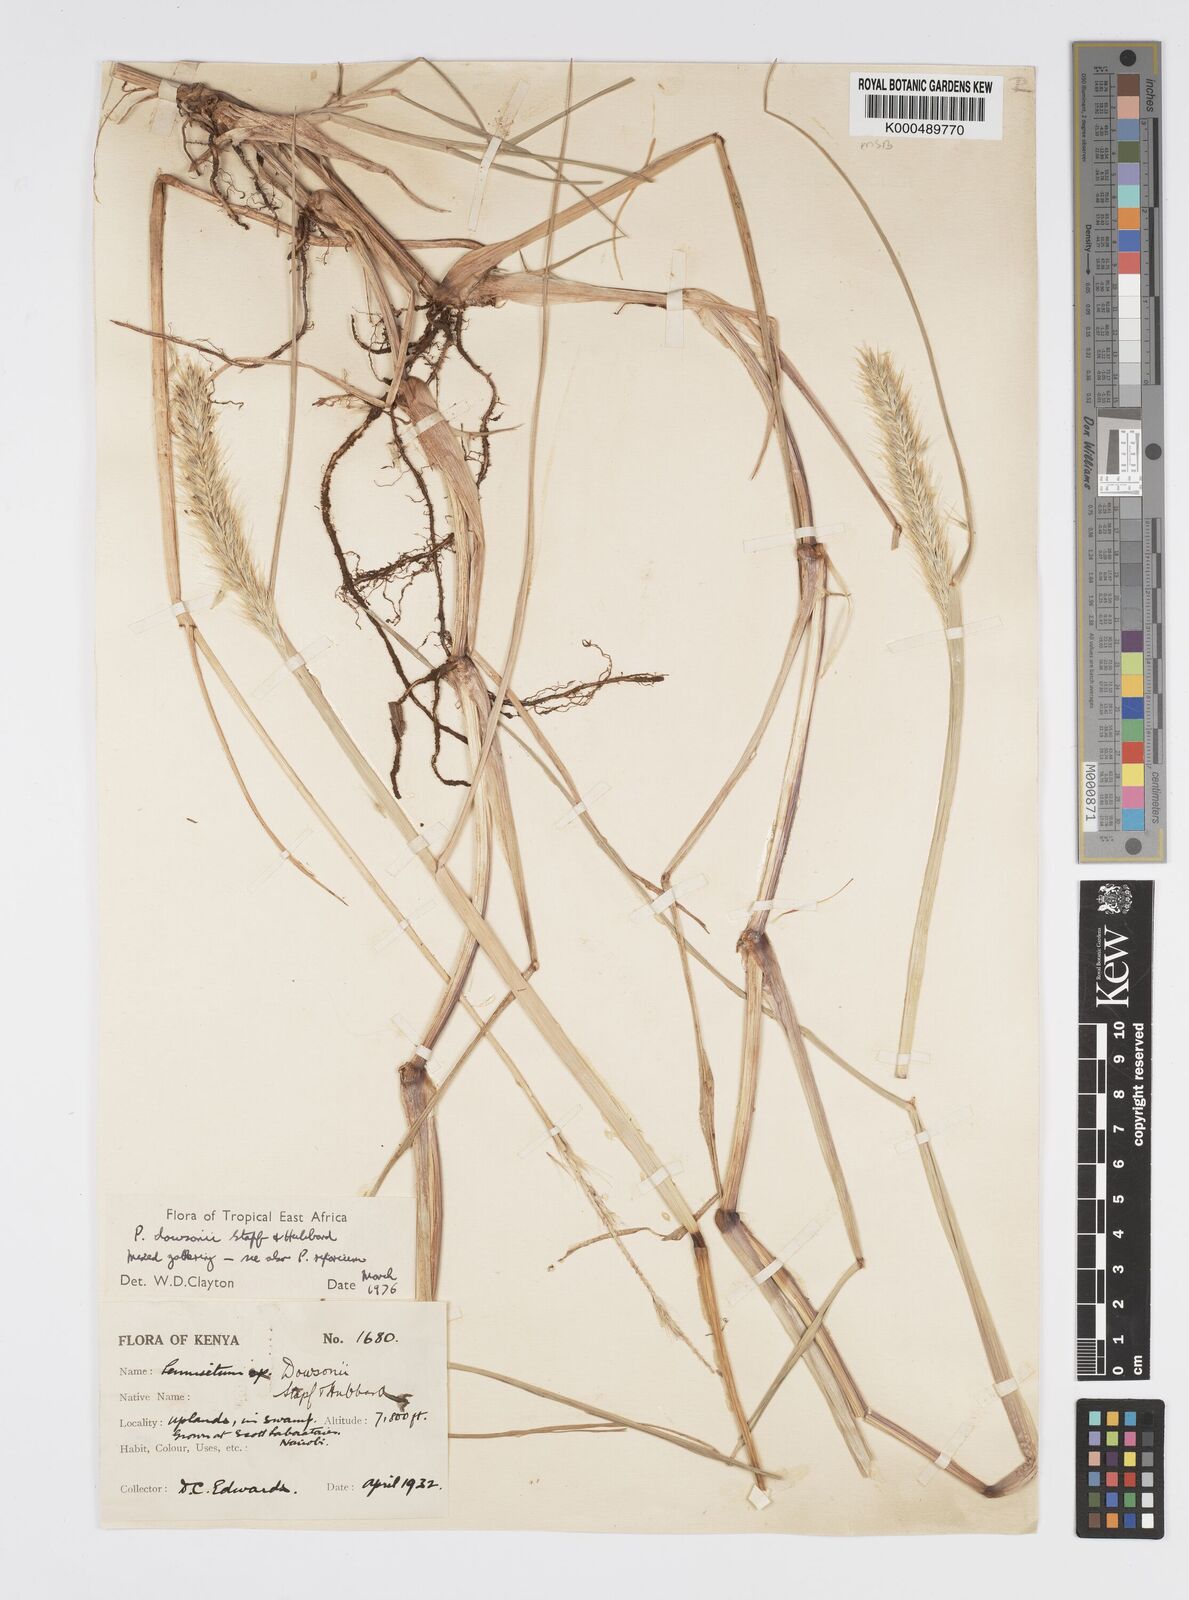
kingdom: Plantae
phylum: Tracheophyta
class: Liliopsida
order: Poales
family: Poaceae
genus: Cenchrus
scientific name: Cenchrus Pennisetum spec
